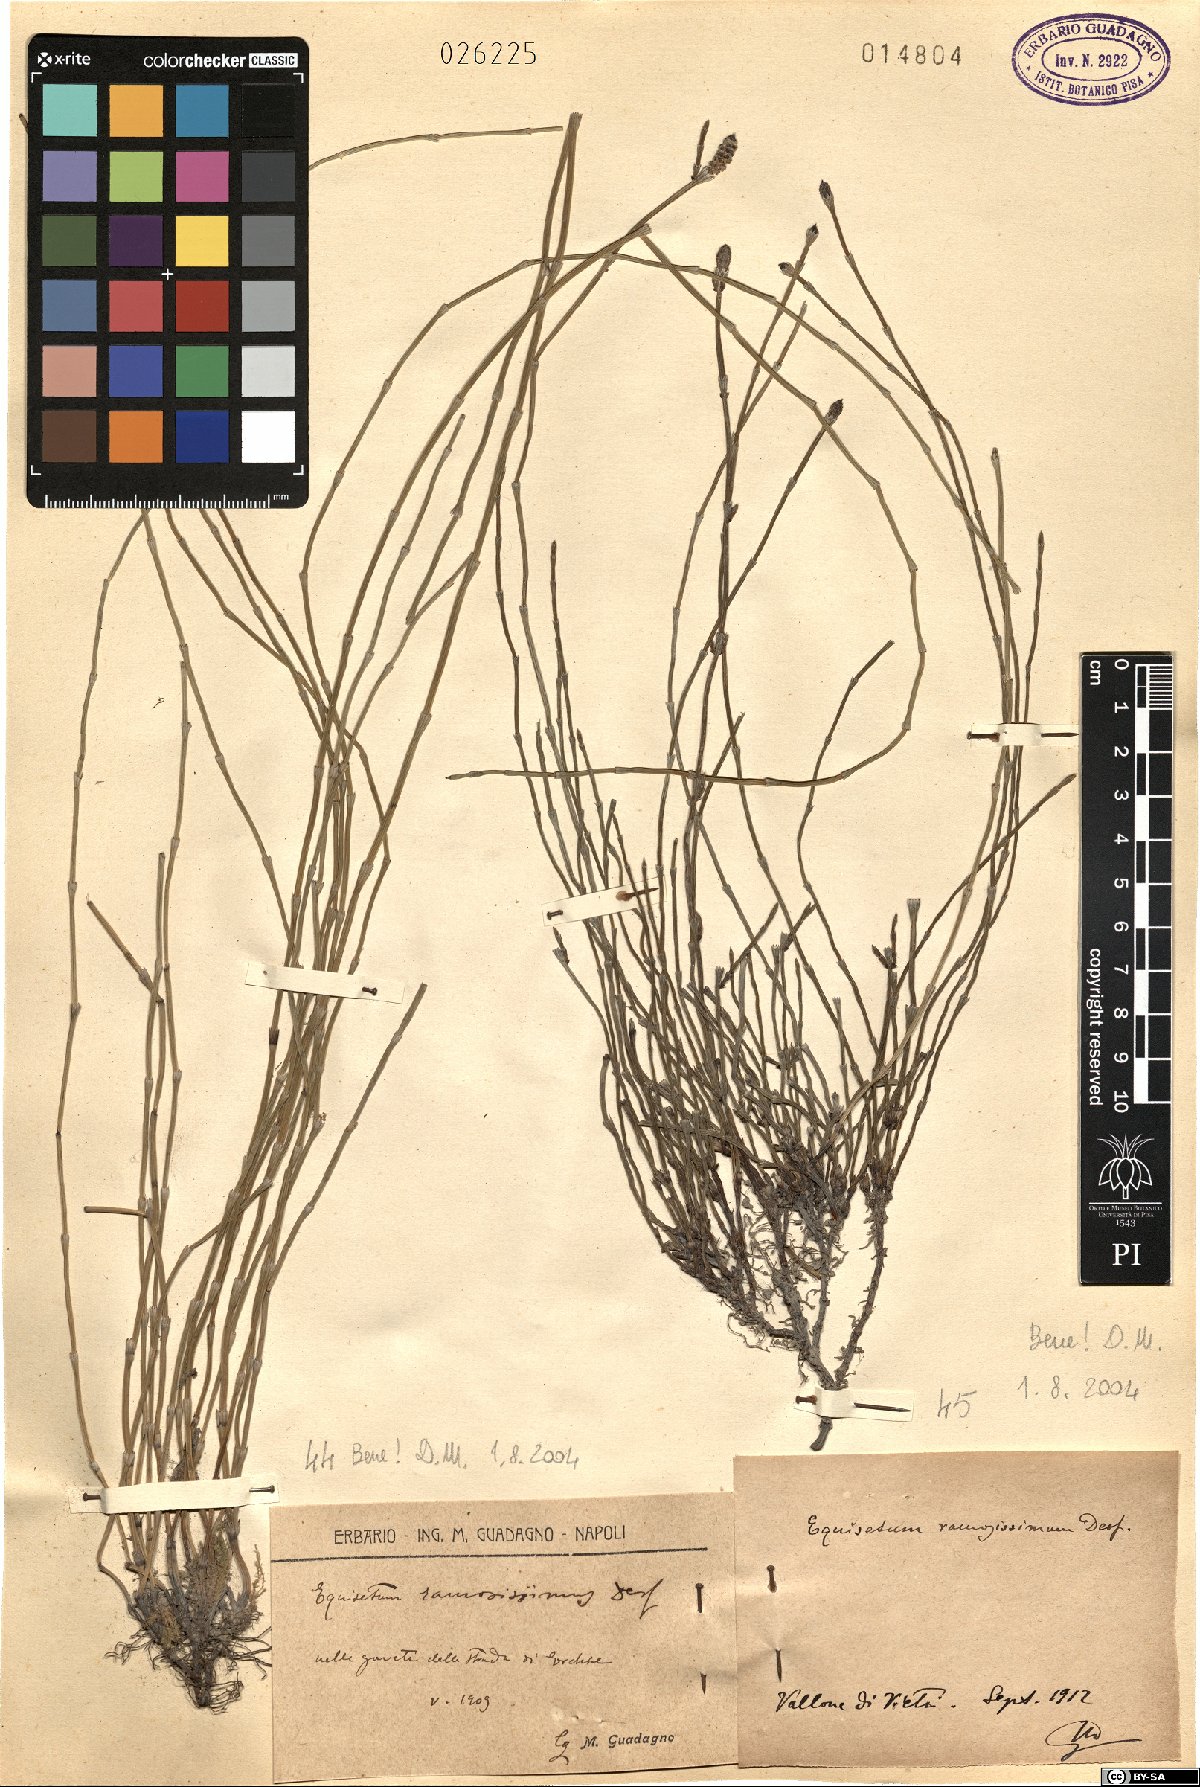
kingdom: Plantae
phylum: Tracheophyta
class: Polypodiopsida
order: Equisetales
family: Equisetaceae
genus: Equisetum
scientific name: Equisetum ramosissimum
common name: Branched horsetail
